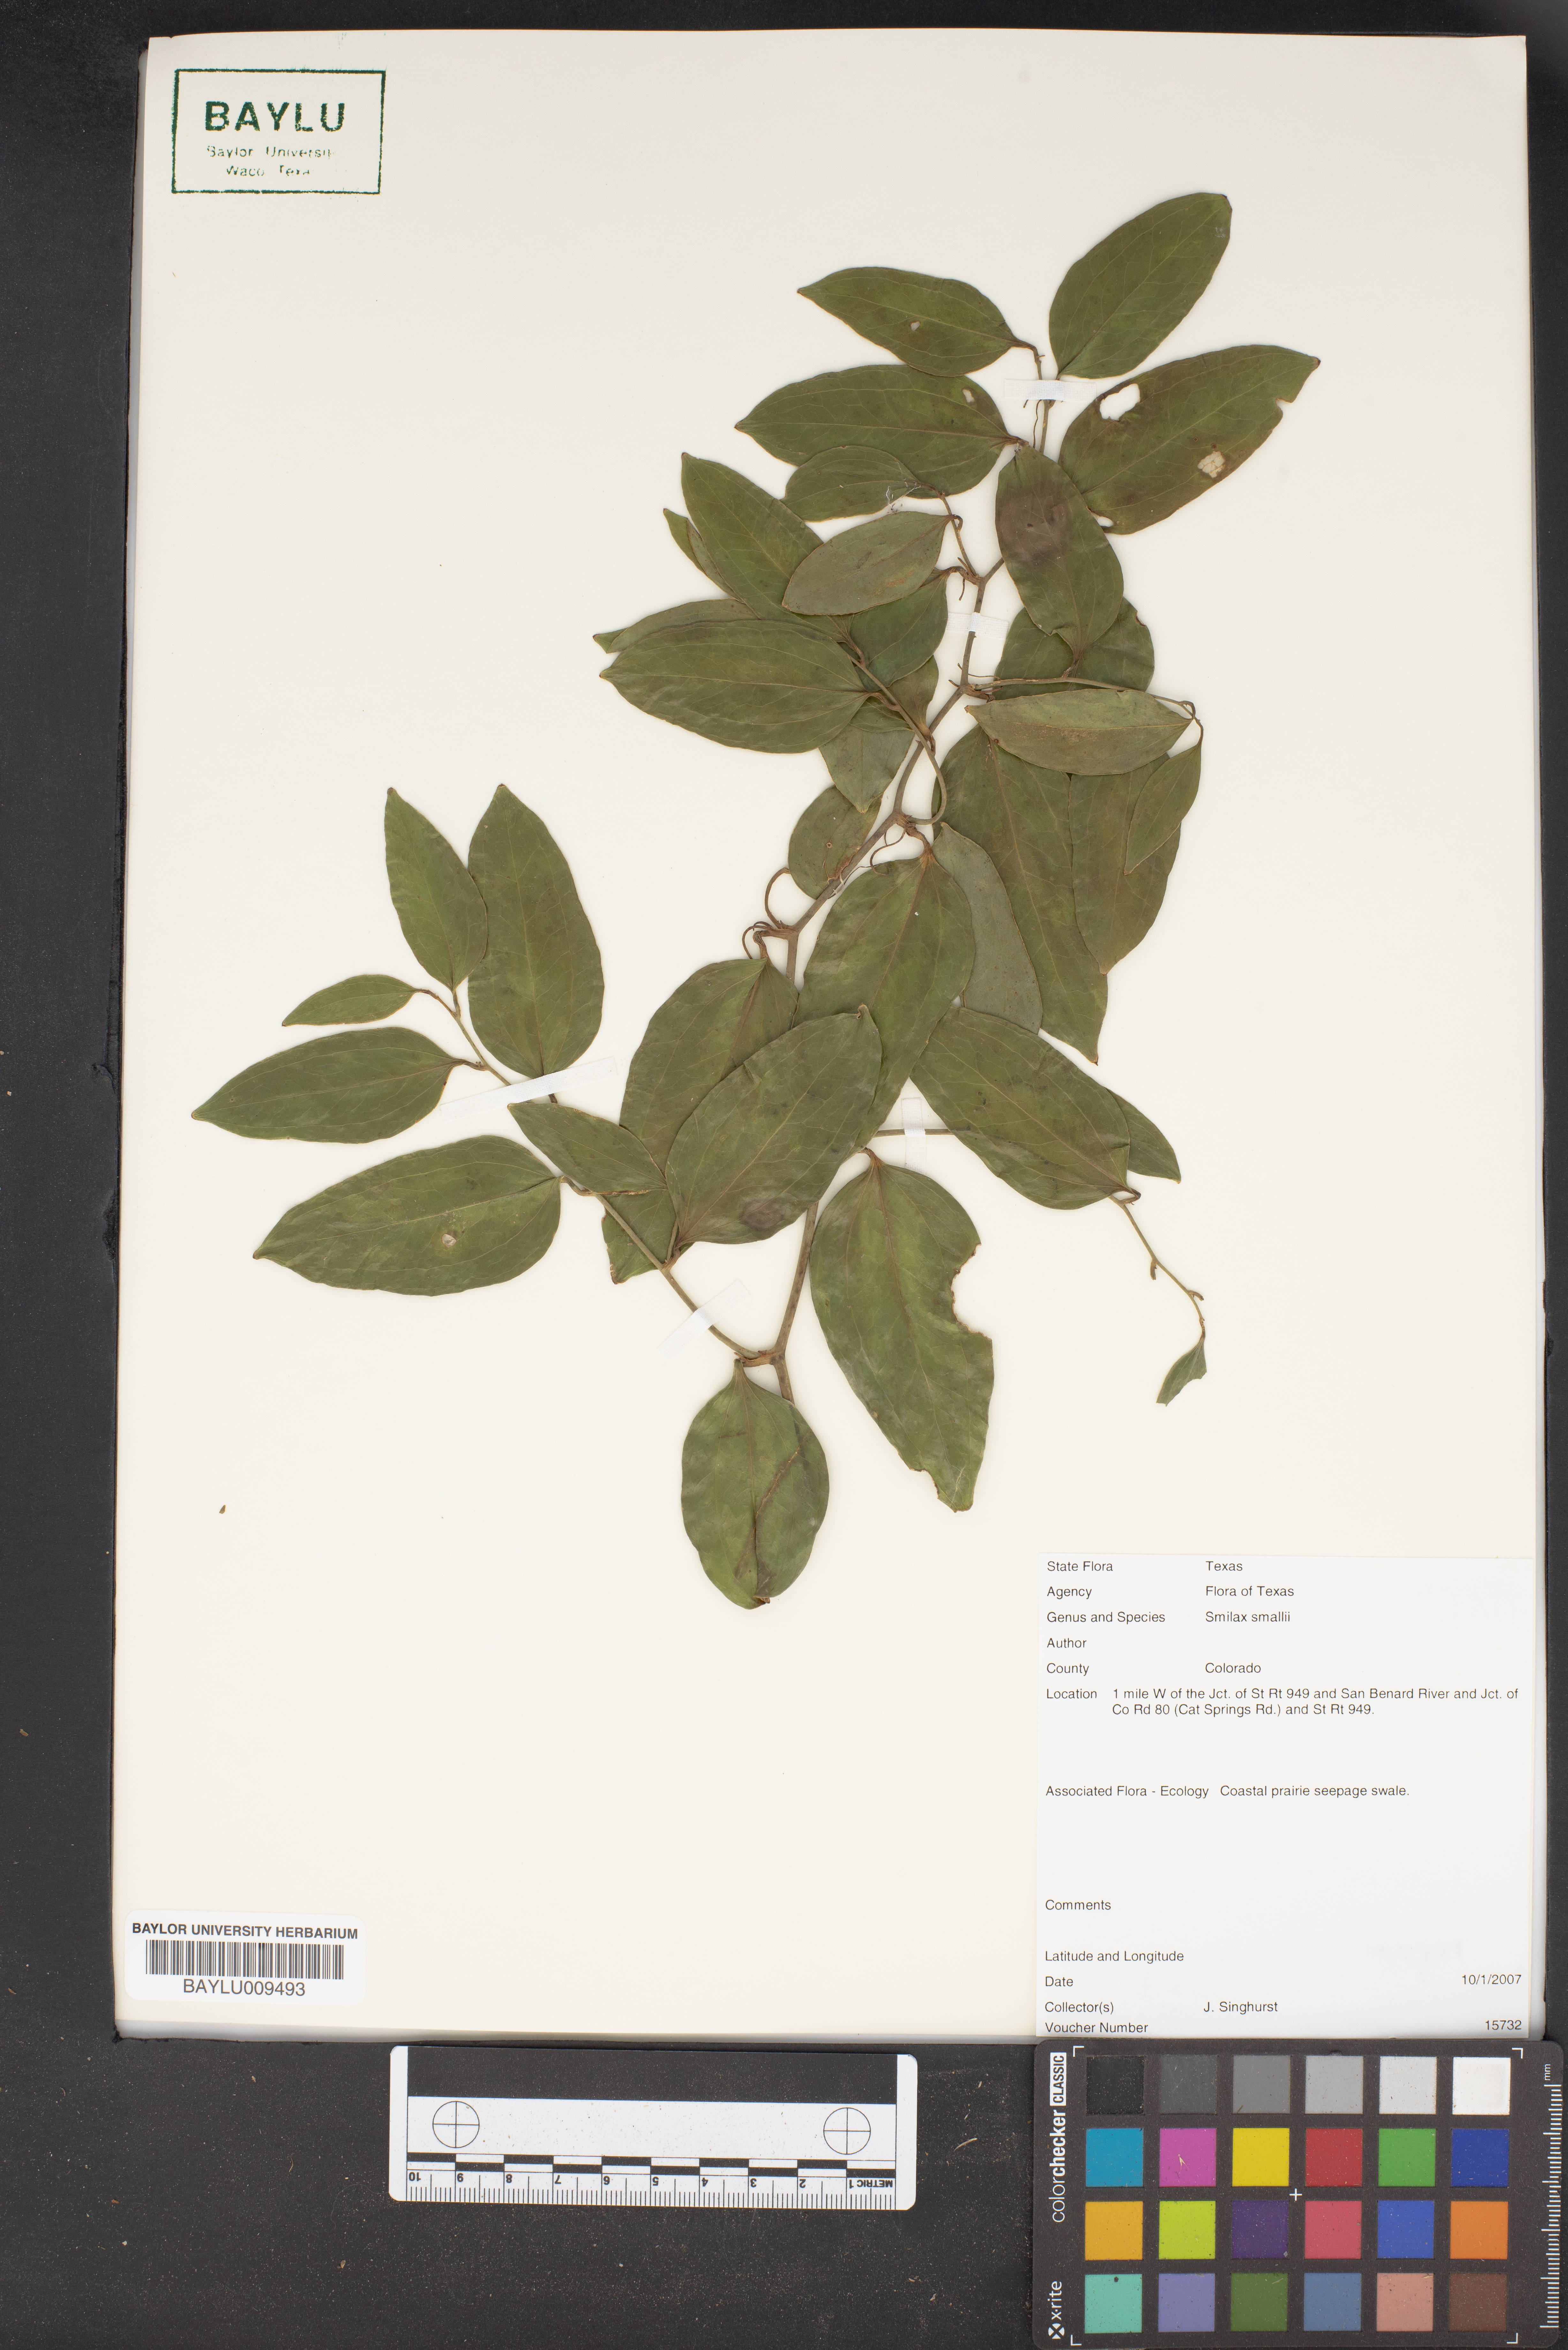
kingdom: Plantae
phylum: Tracheophyta
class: Liliopsida
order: Liliales
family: Smilacaceae
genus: Smilax
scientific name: Smilax maritima
